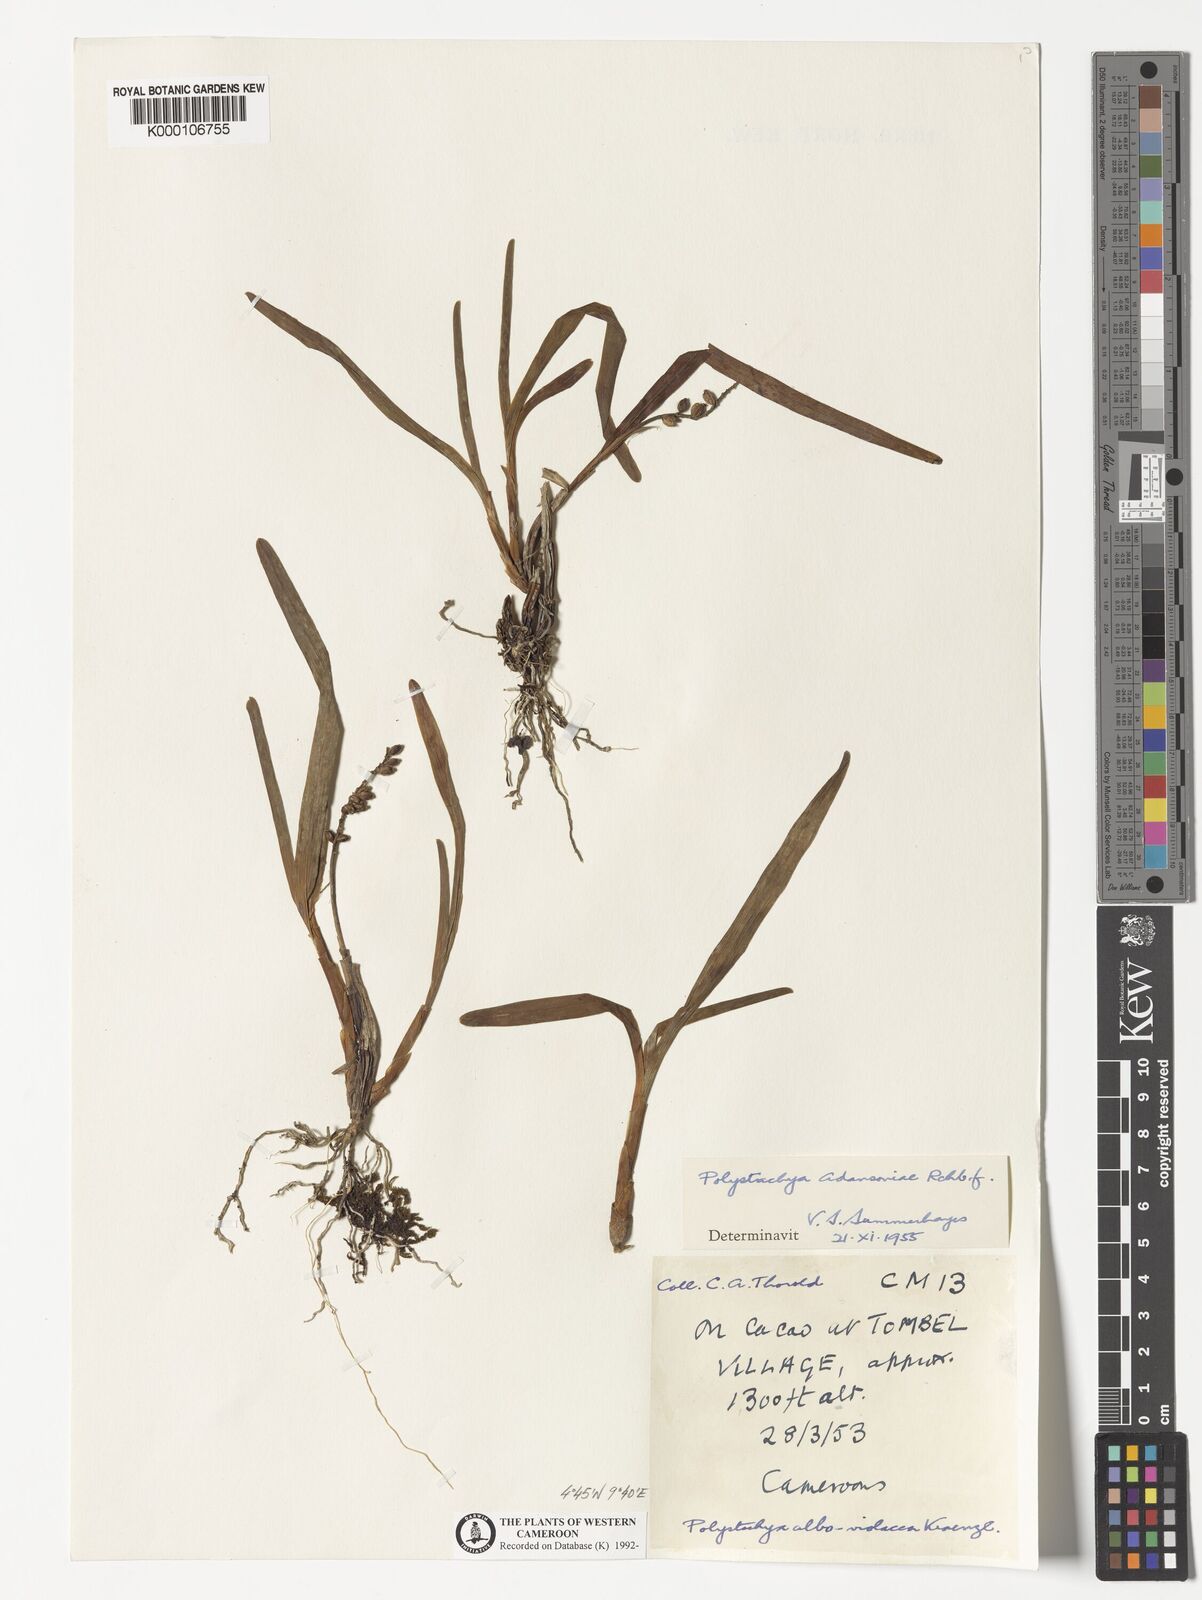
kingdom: Plantae
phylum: Tracheophyta
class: Liliopsida
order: Asparagales
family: Orchidaceae
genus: Polystachya
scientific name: Polystachya adansoniae
